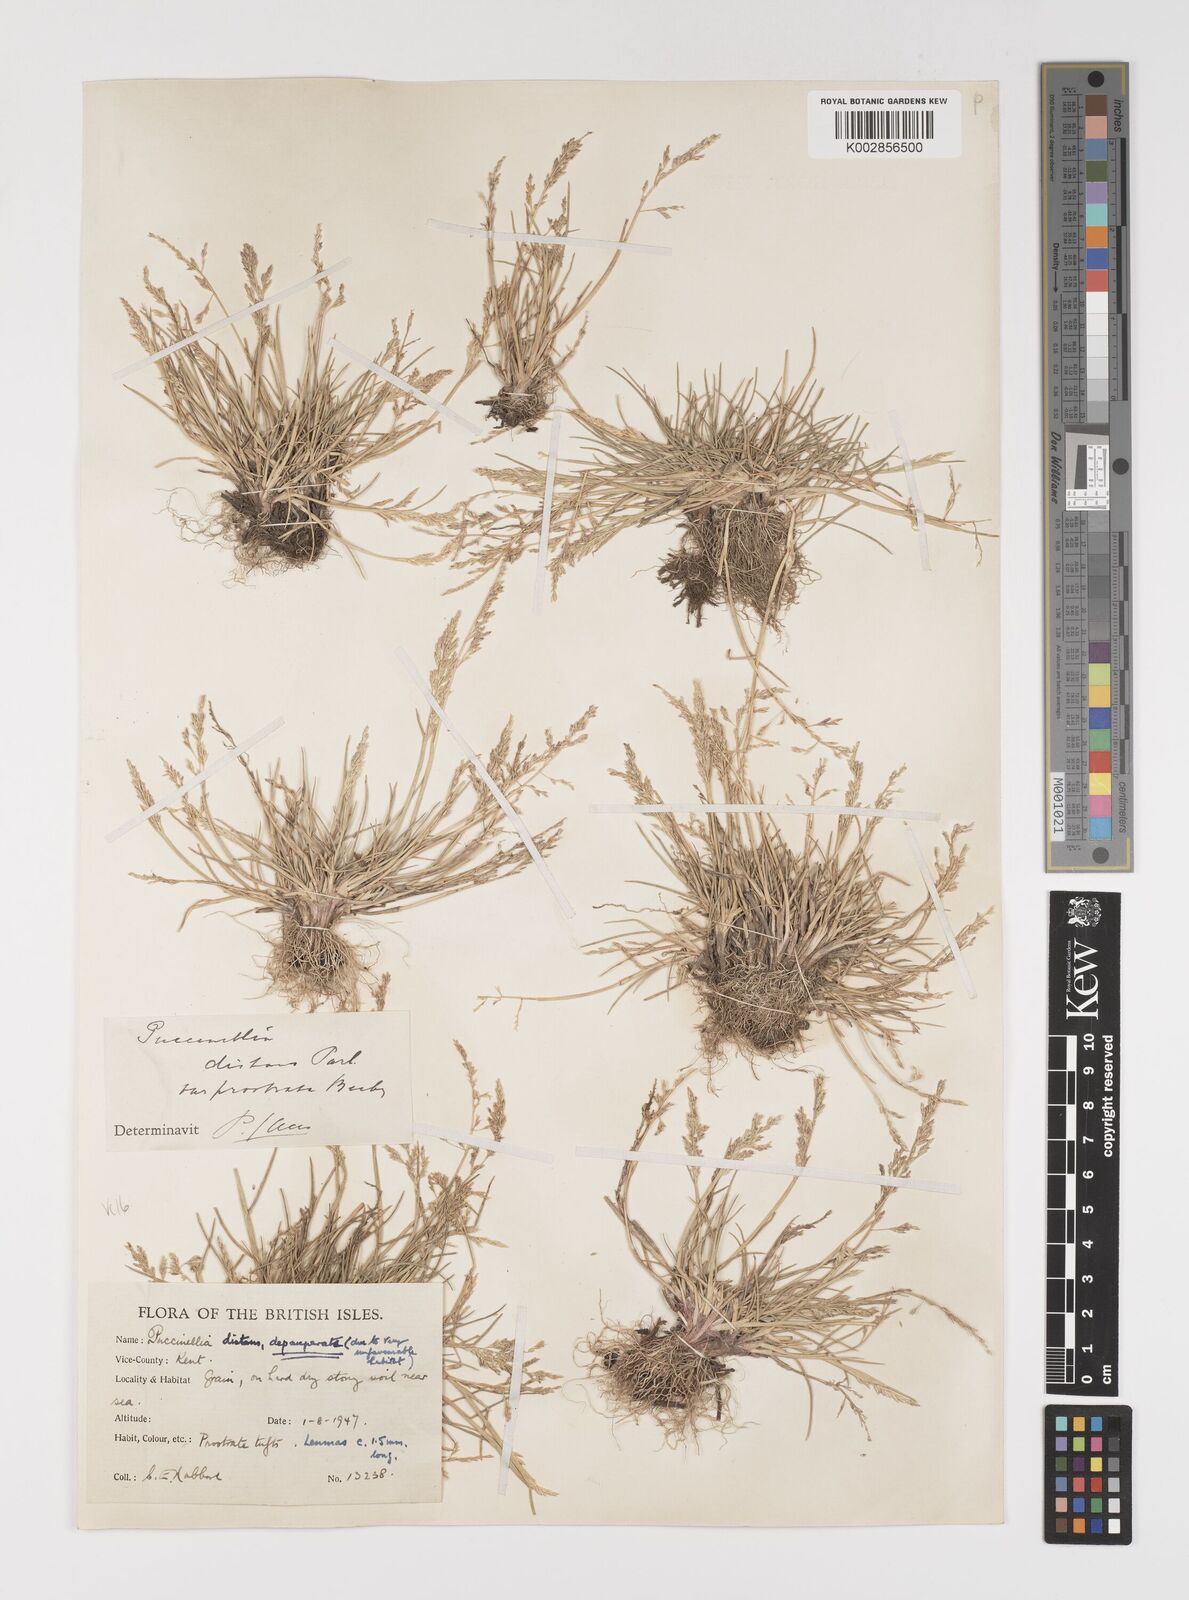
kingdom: Plantae
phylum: Tracheophyta
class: Liliopsida
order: Poales
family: Poaceae
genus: Puccinellia
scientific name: Puccinellia distans
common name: Weeping alkaligrass
